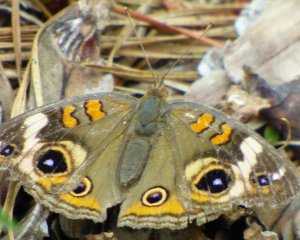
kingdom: Animalia
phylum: Arthropoda
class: Insecta
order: Lepidoptera
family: Nymphalidae
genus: Junonia
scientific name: Junonia coenia
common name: Common Buckeye
